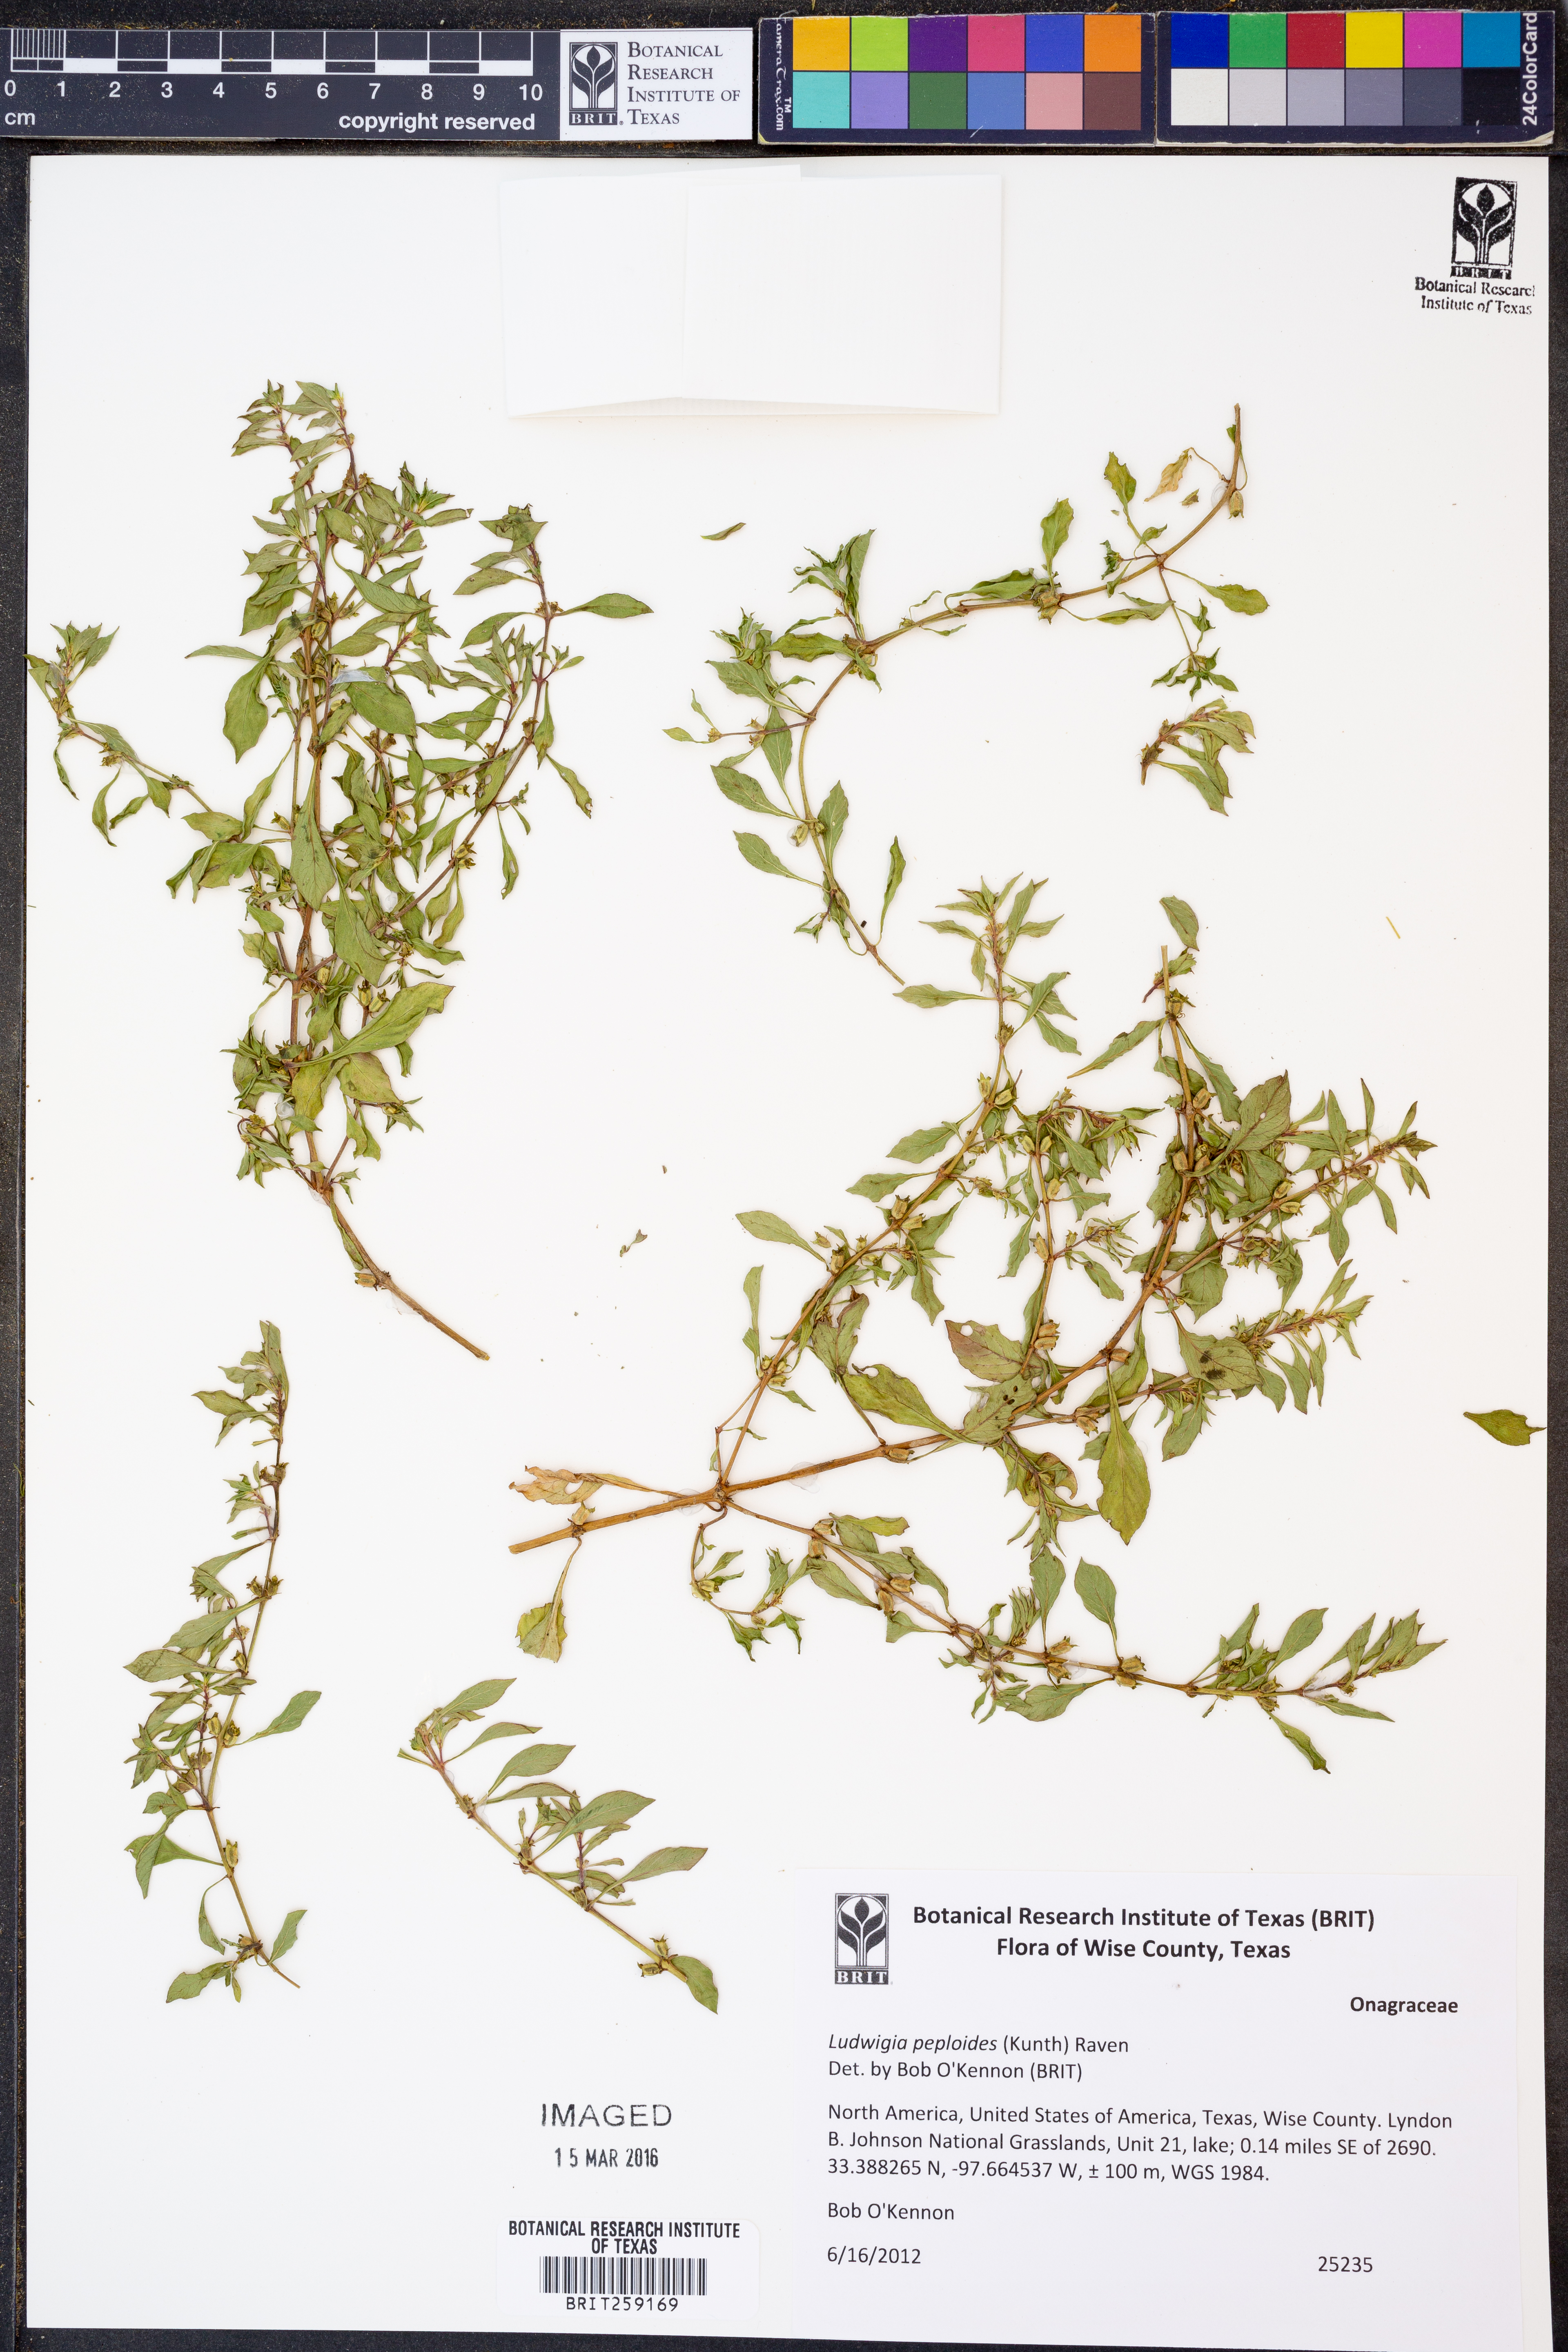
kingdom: Plantae
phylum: Tracheophyta
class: Magnoliopsida
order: Myrtales
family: Onagraceae
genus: Ludwigia
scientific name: Ludwigia peploides
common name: Floating primrose-willow
